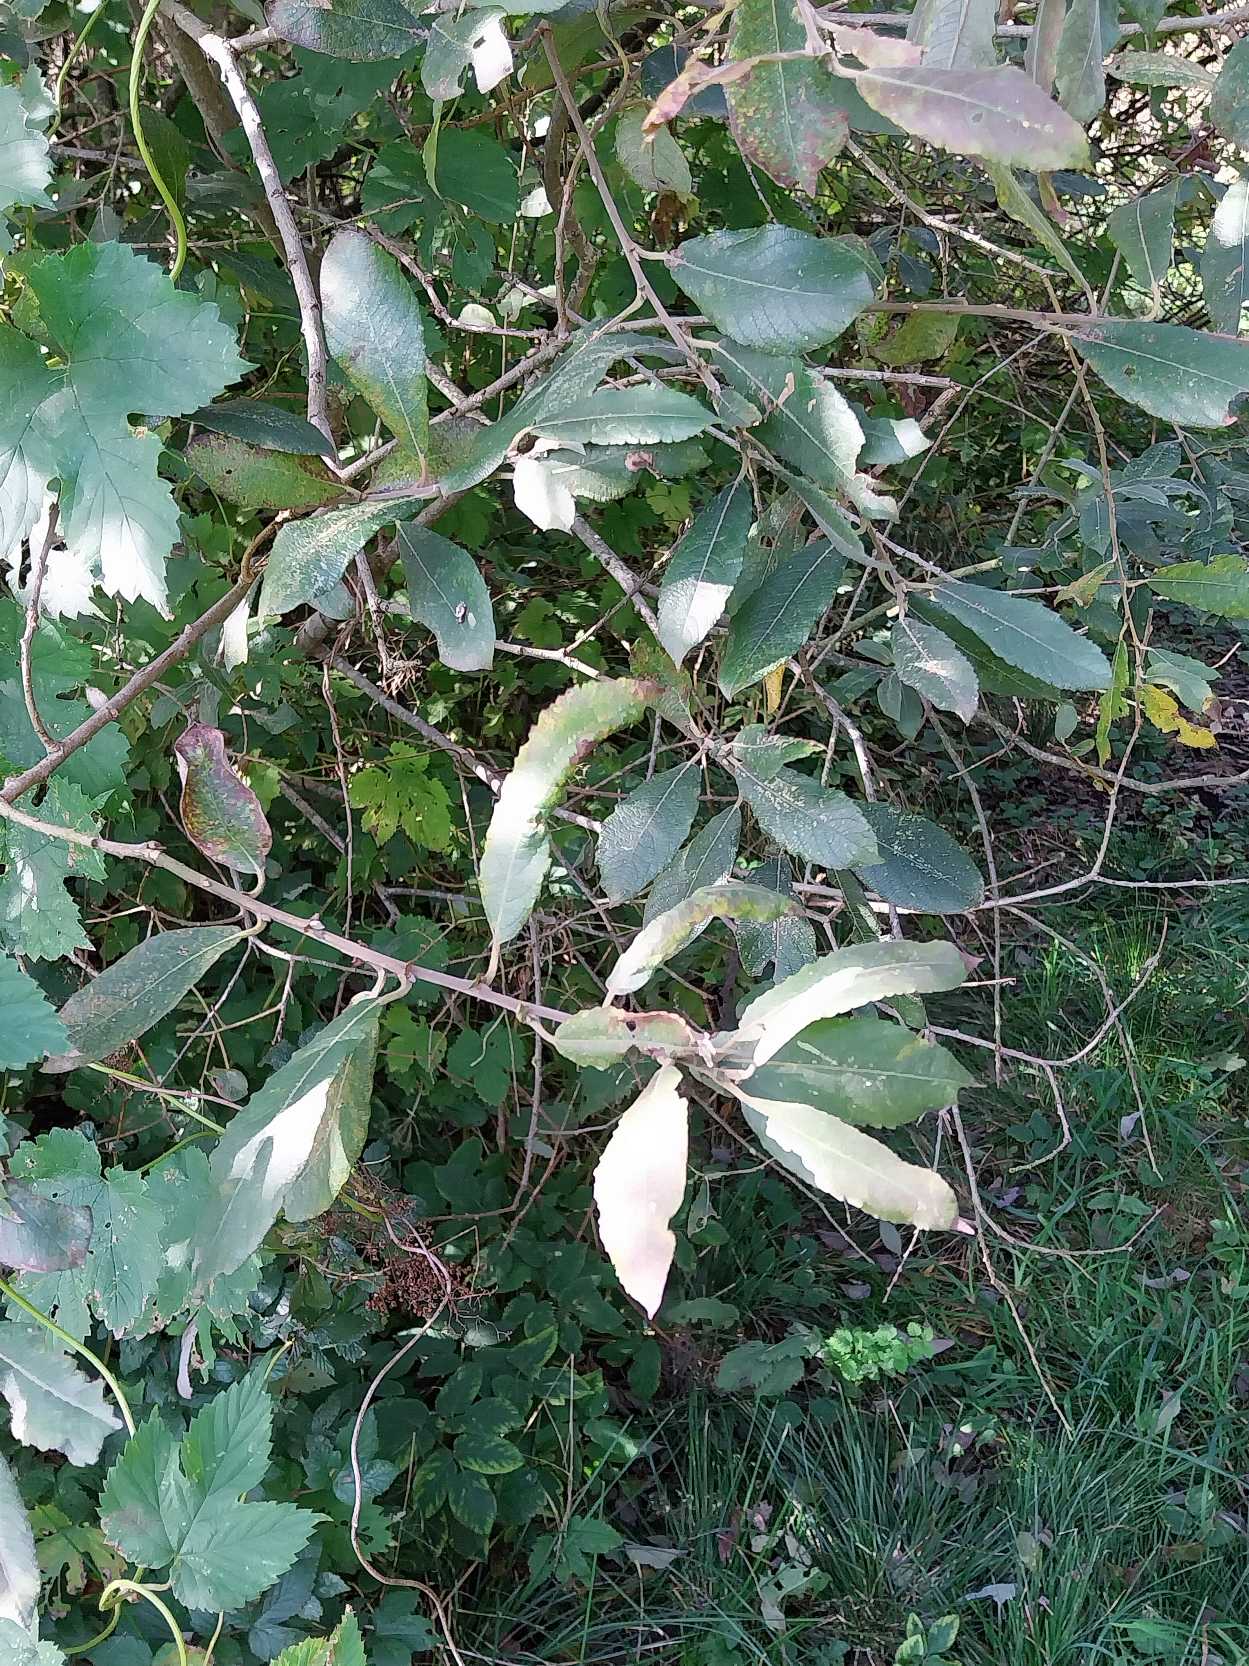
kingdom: Plantae
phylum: Tracheophyta
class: Magnoliopsida
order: Malpighiales
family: Salicaceae
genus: Salix
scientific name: Salix cinerea
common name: Grå-pil
